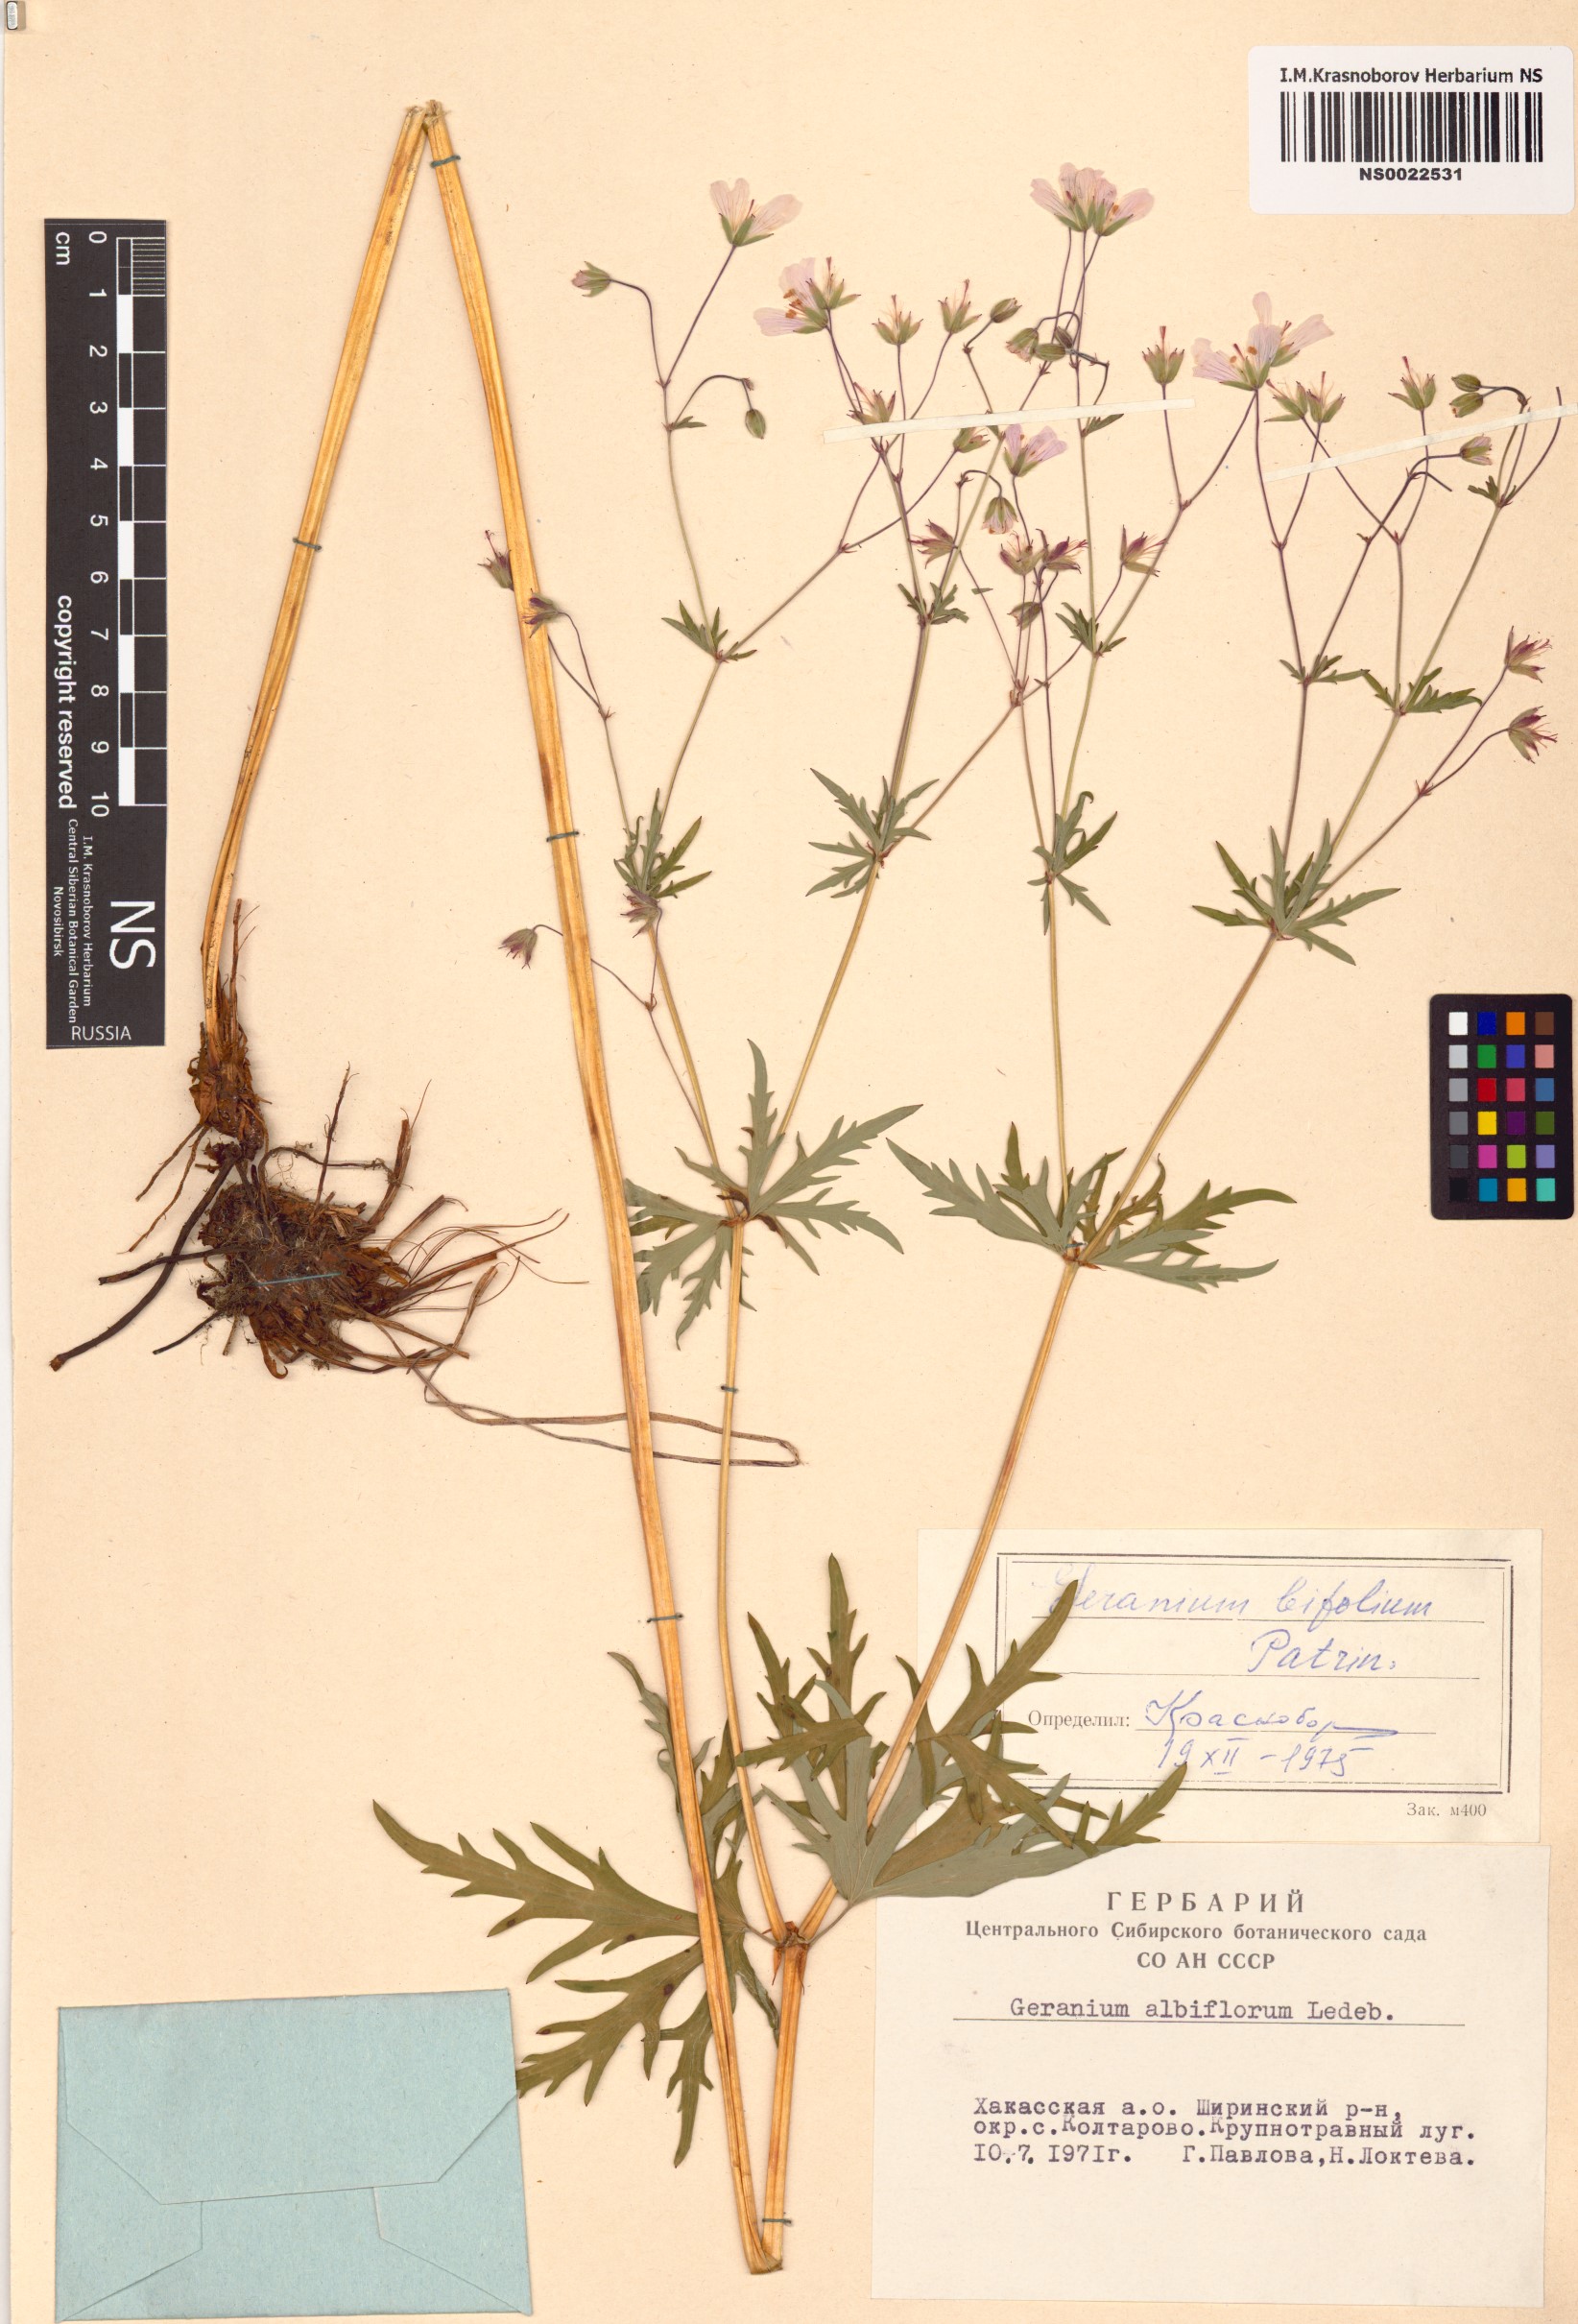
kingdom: Plantae
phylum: Tracheophyta
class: Magnoliopsida
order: Geraniales
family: Geraniaceae
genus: Geranium
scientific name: Geranium pseudosibiricum
